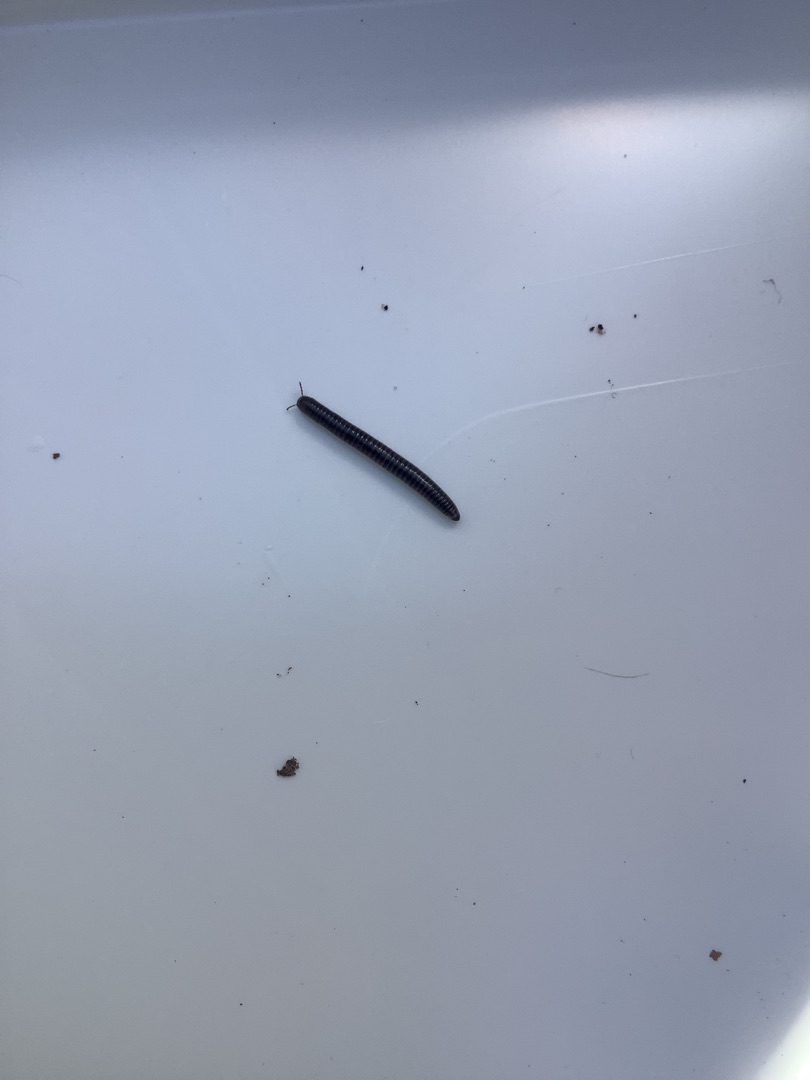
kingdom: Animalia
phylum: Arthropoda
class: Diplopoda
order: Julida
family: Julidae
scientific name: Julidae
